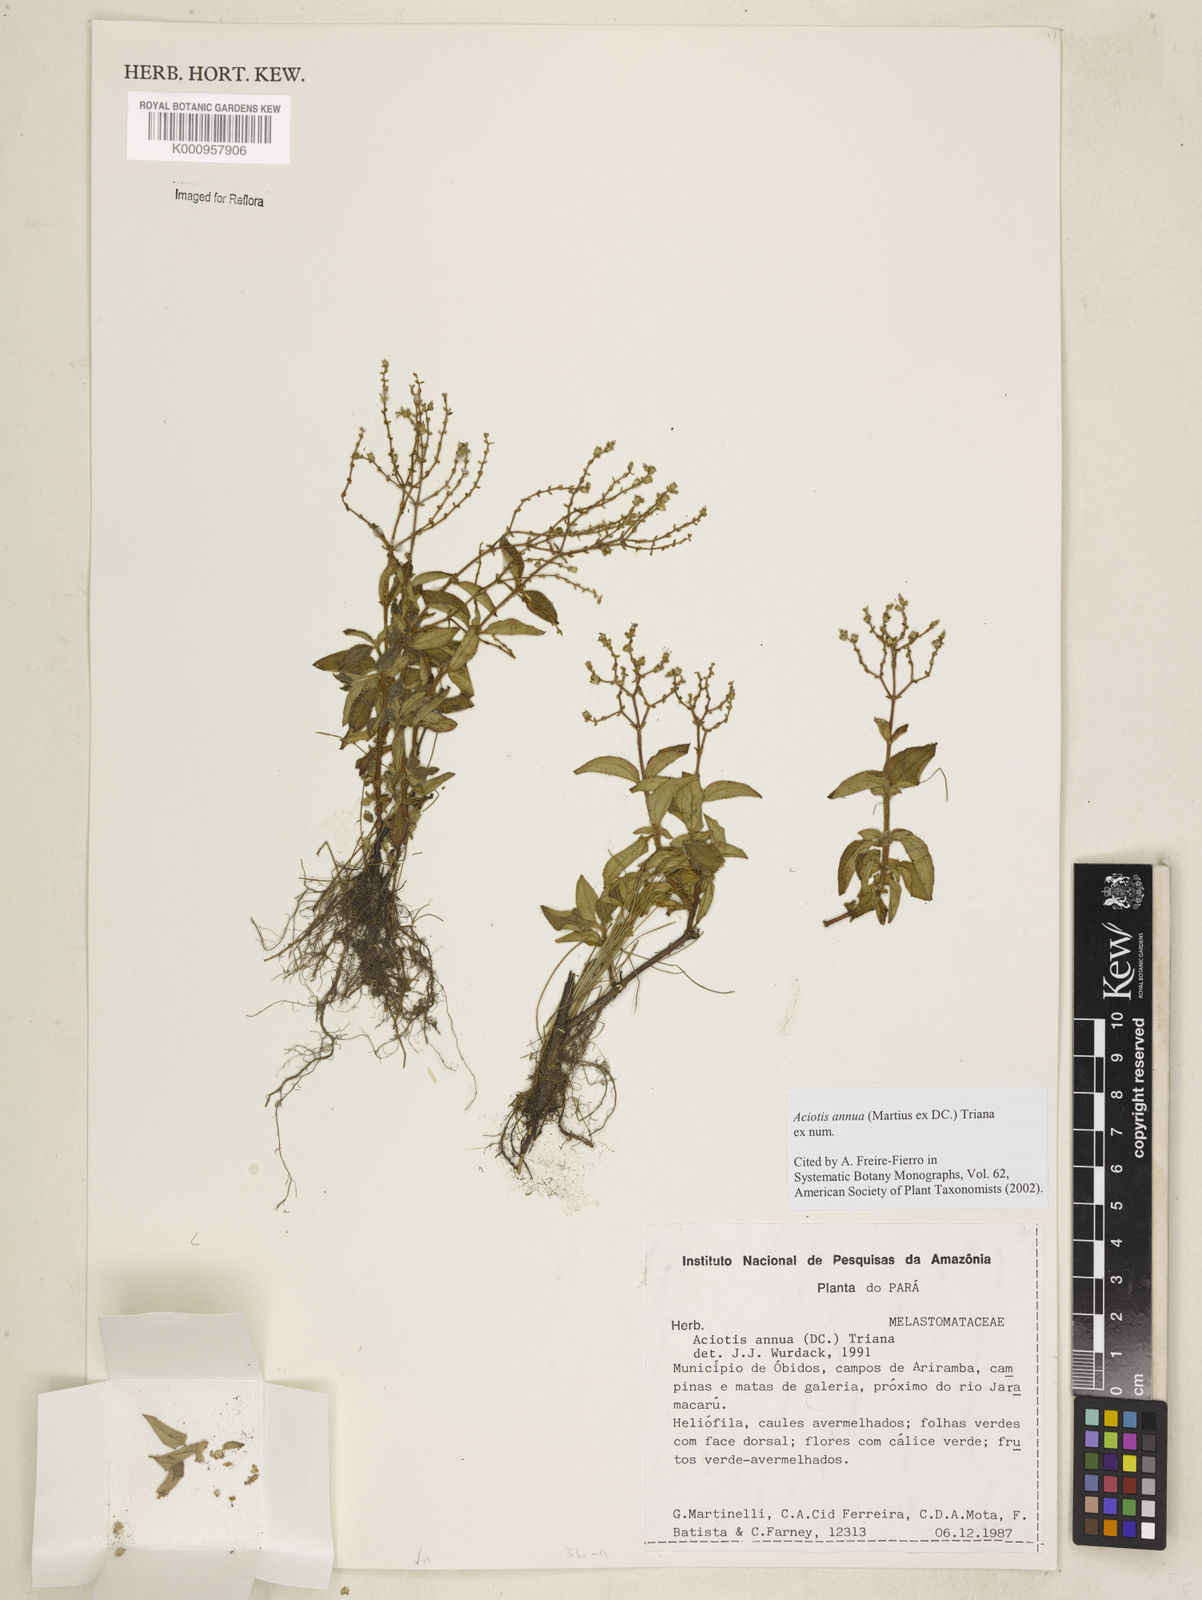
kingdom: Plantae
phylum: Tracheophyta
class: Magnoliopsida
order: Myrtales
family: Melastomataceae
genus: Aciotis
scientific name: Aciotis annua
